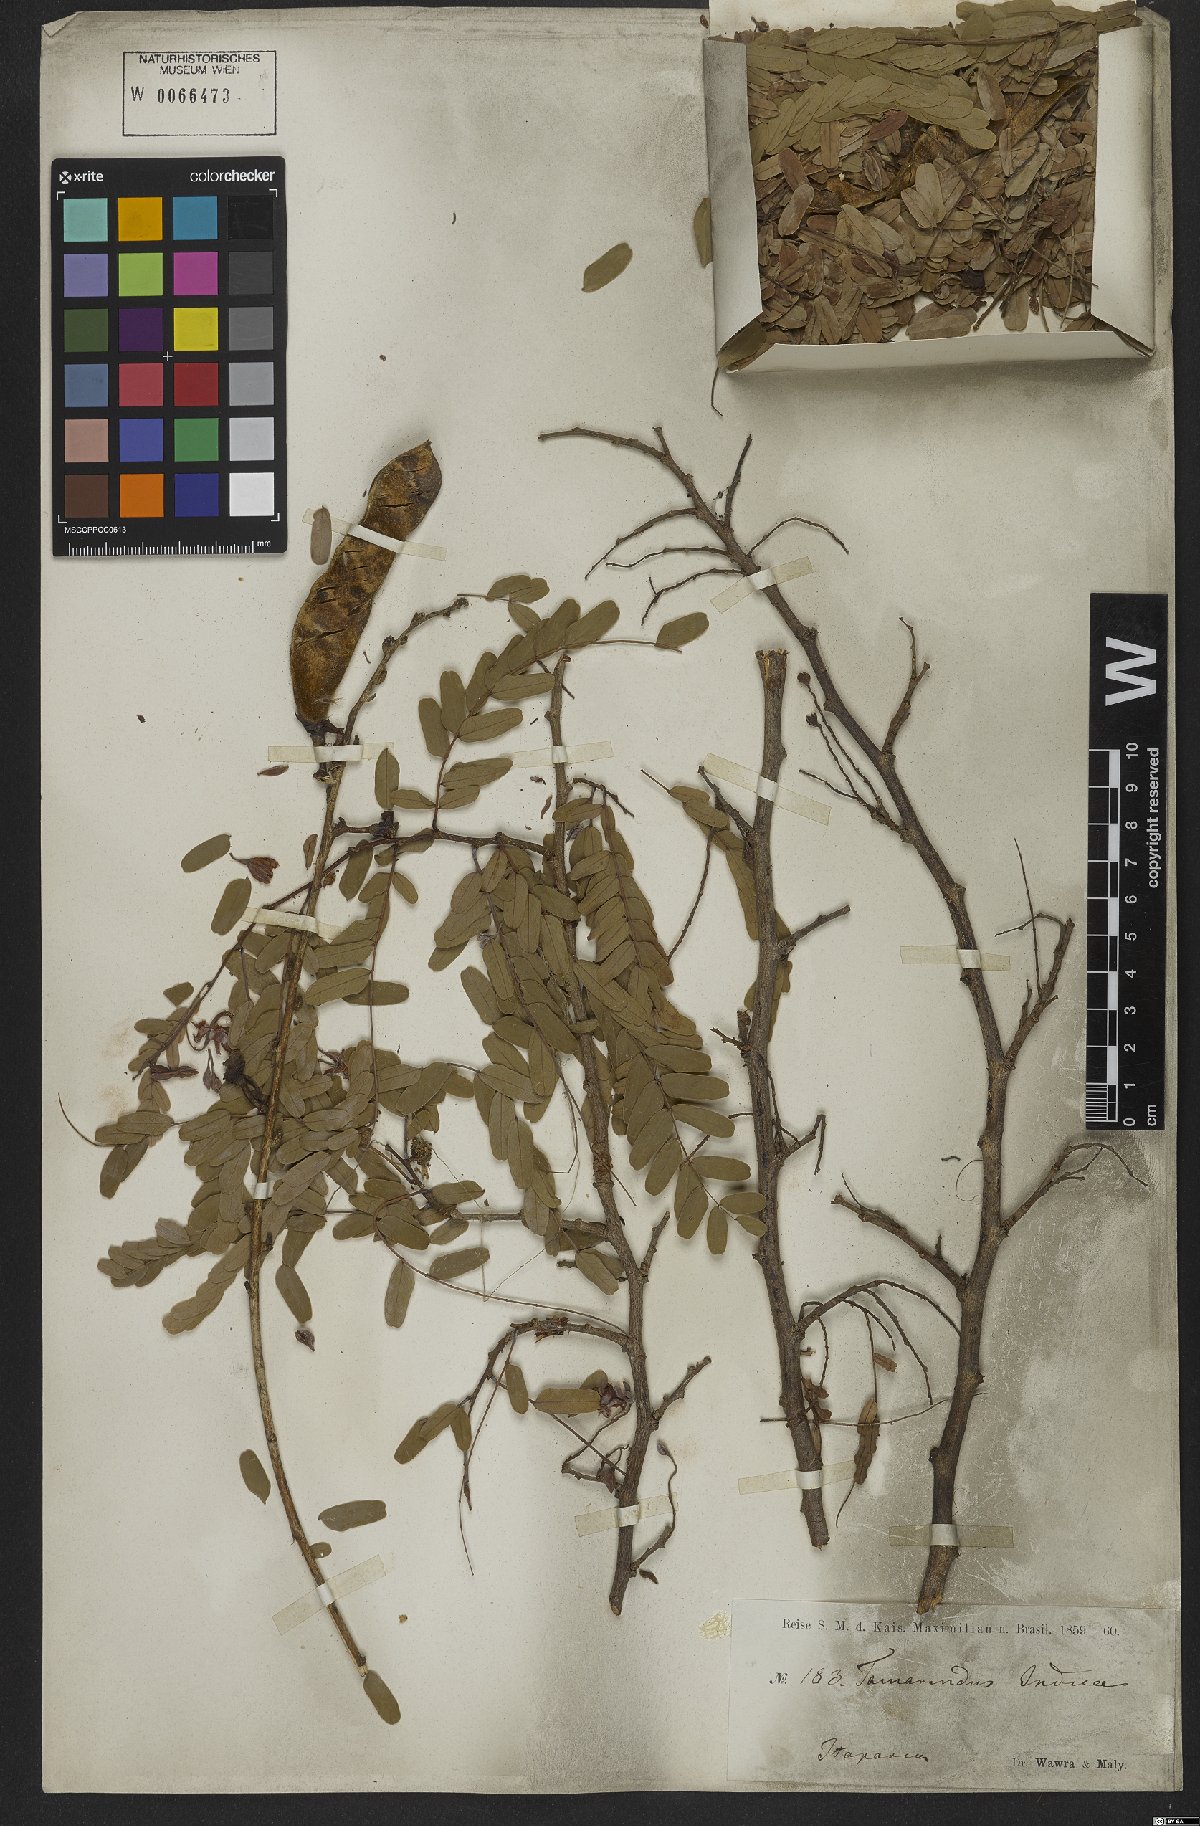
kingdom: Plantae
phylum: Tracheophyta
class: Magnoliopsida
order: Fabales
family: Fabaceae
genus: Tamarindus
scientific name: Tamarindus indica
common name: Tamarind
